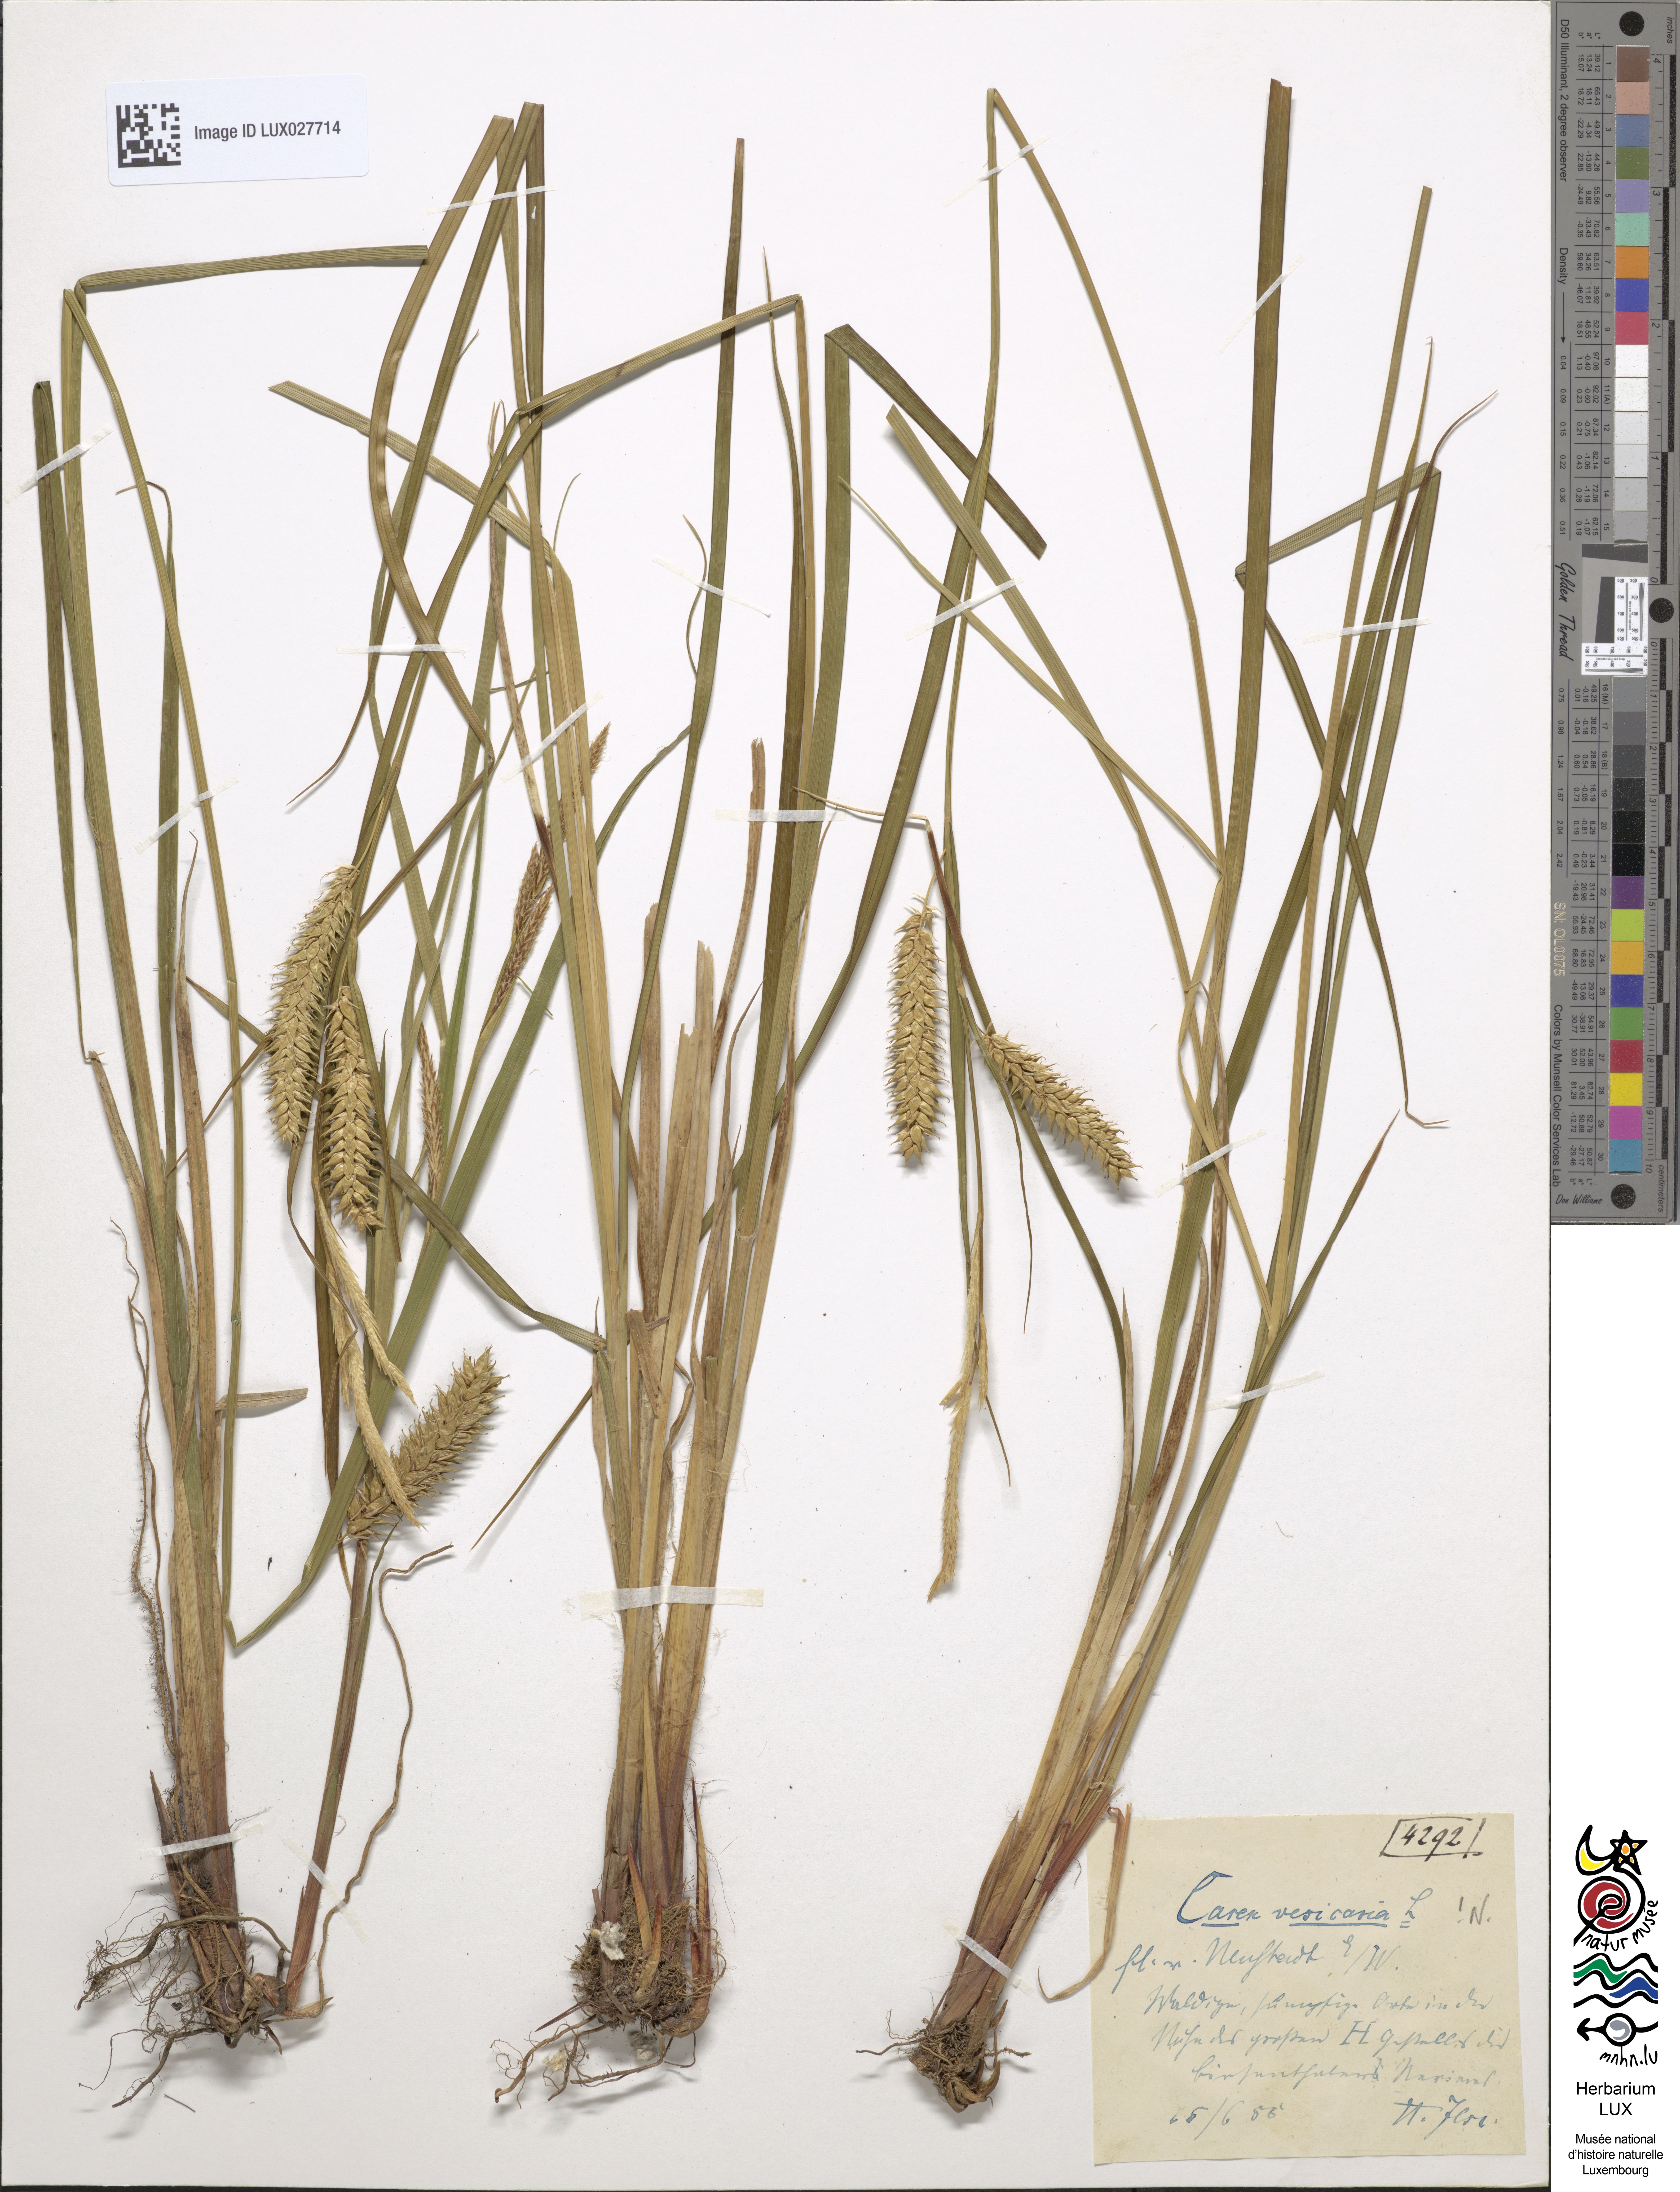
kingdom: Plantae
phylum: Tracheophyta
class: Liliopsida
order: Poales
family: Cyperaceae
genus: Carex
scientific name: Carex vesicaria
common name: Bladder-sedge
